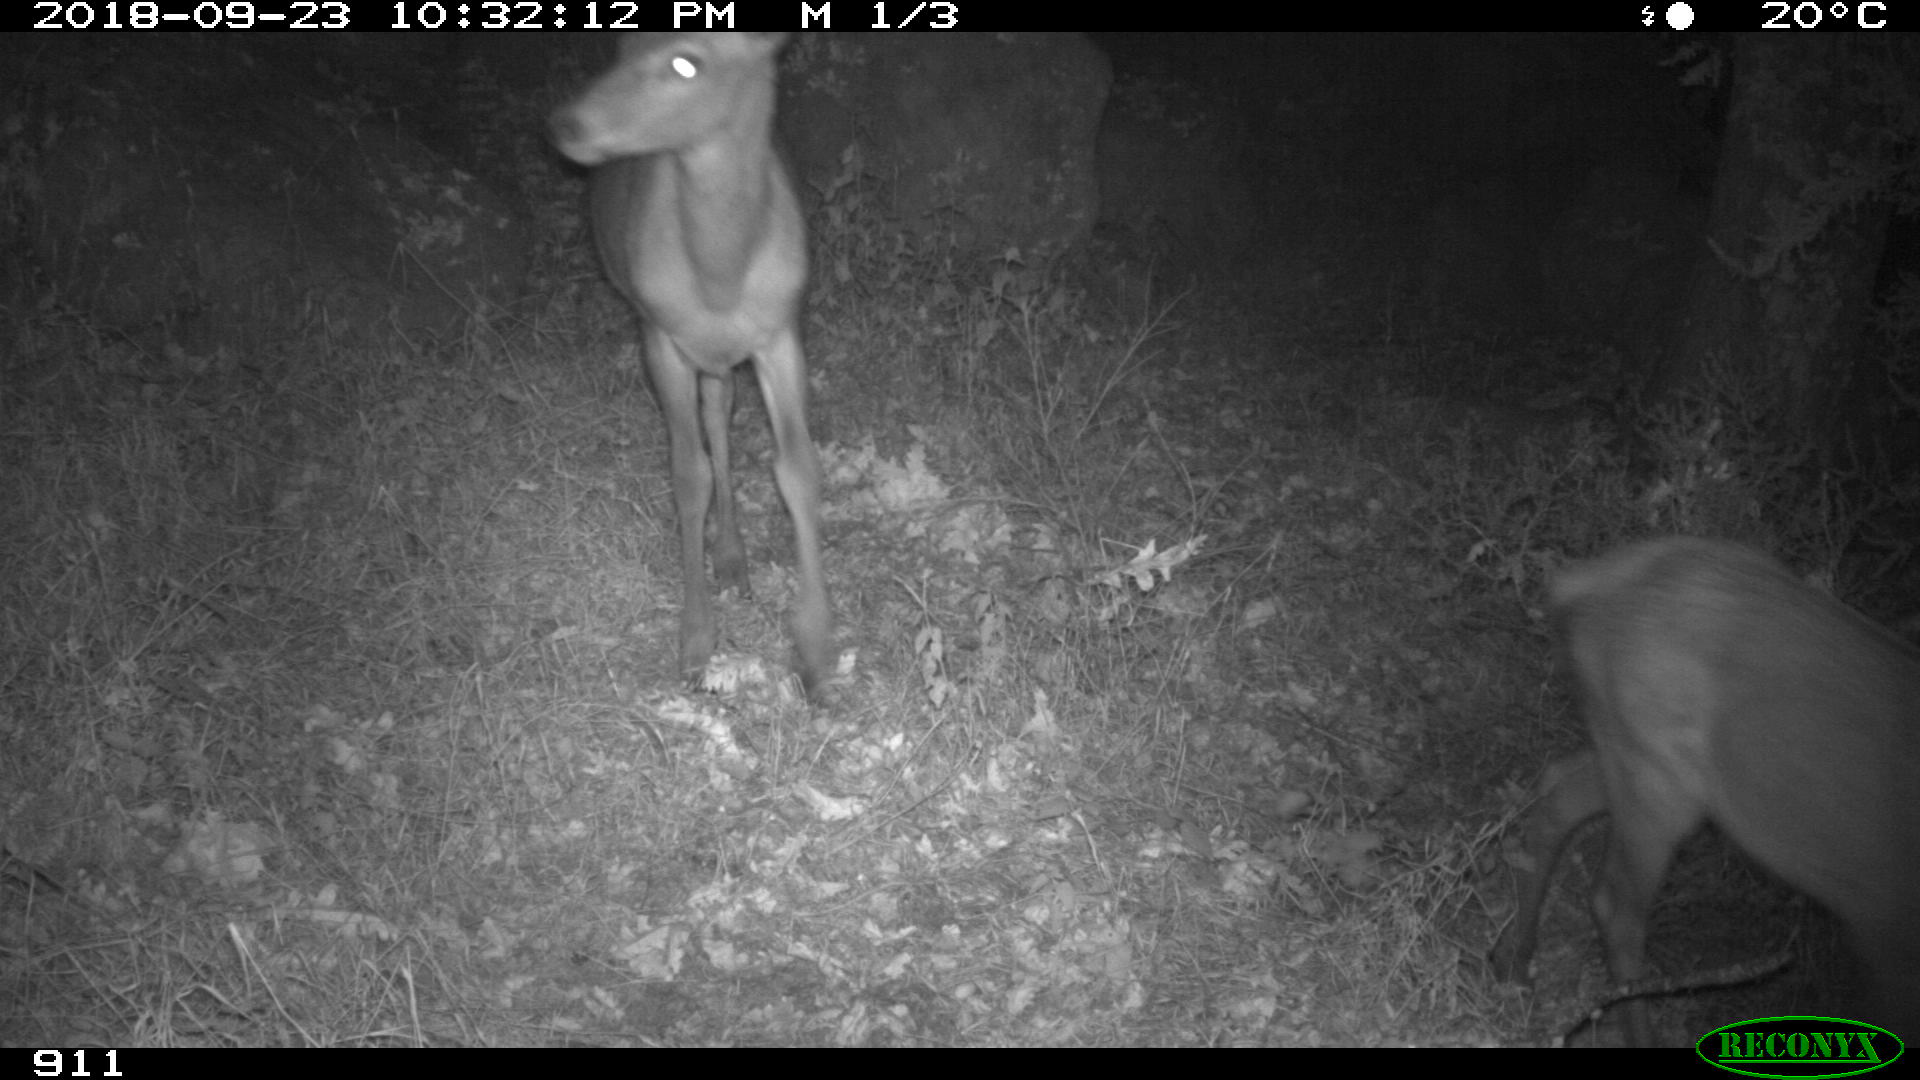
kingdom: Animalia
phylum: Chordata
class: Mammalia
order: Artiodactyla
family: Cervidae
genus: Cervus
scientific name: Cervus elaphus
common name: Red deer
